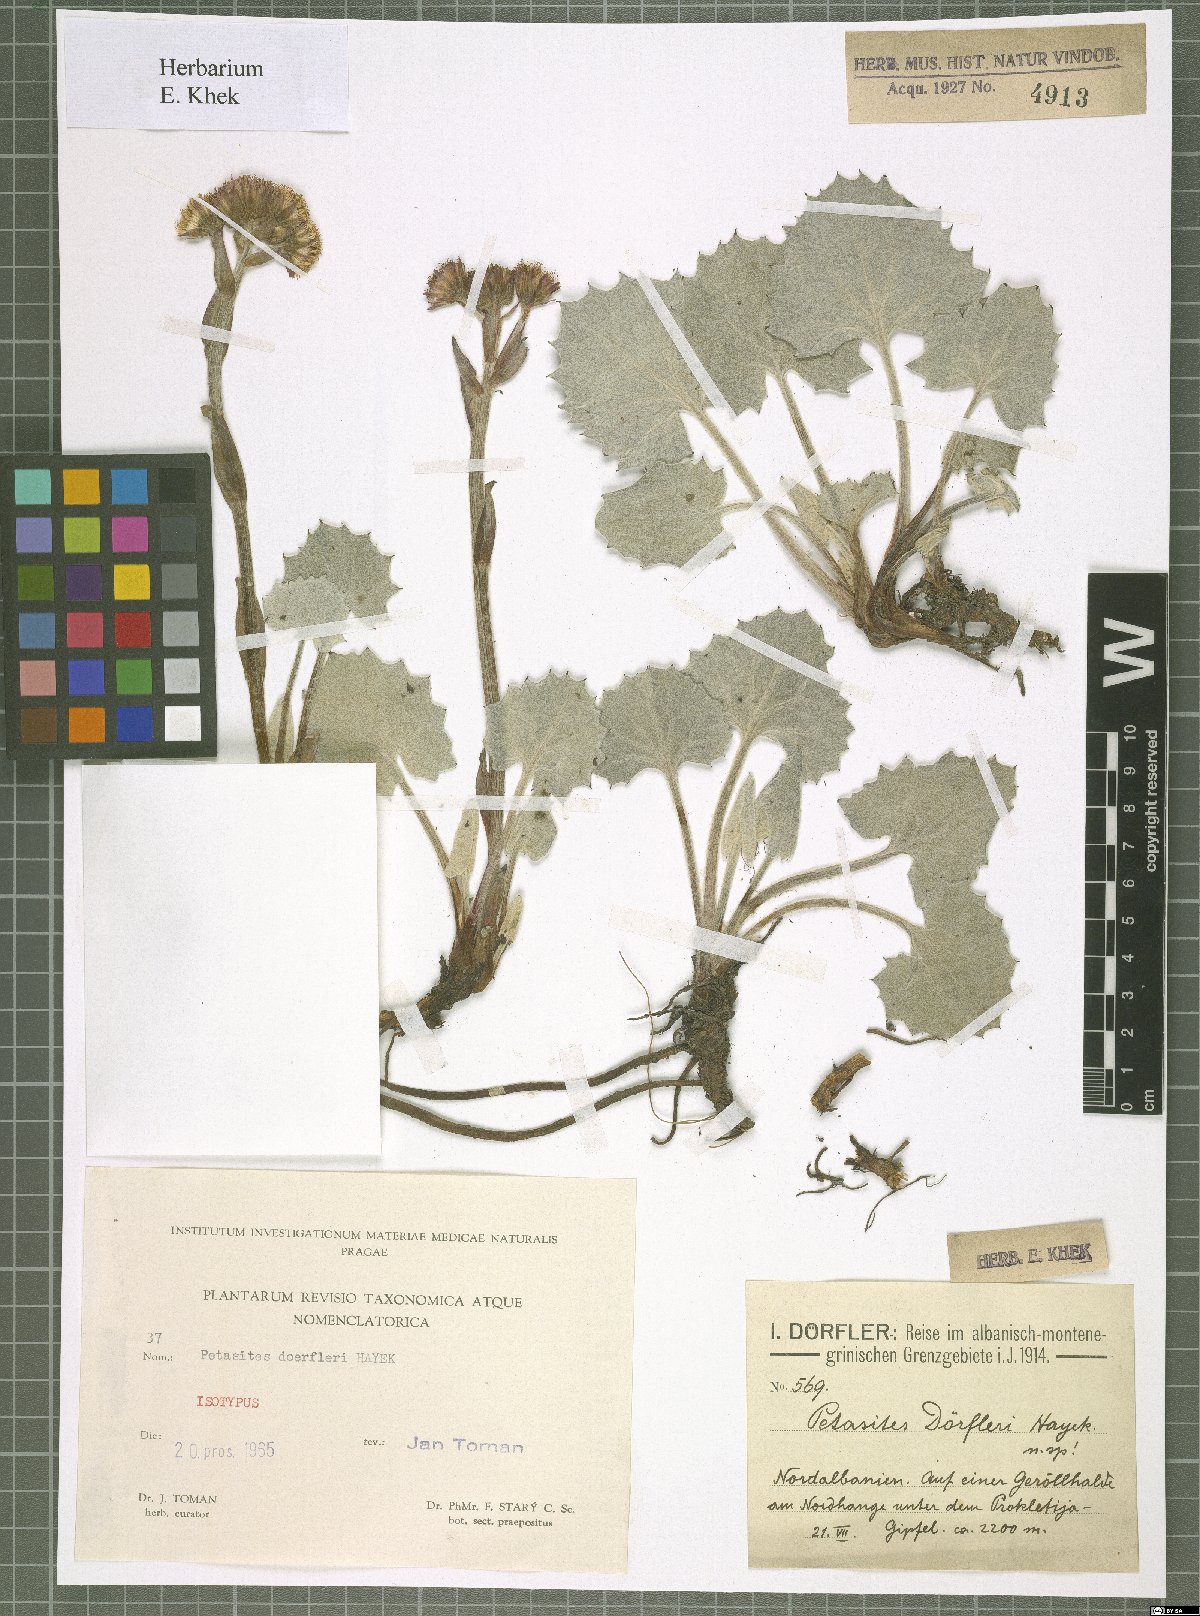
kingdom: Plantae
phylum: Tracheophyta
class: Magnoliopsida
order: Asterales
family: Asteraceae
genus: Petasites
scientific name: Petasites doerfleri
